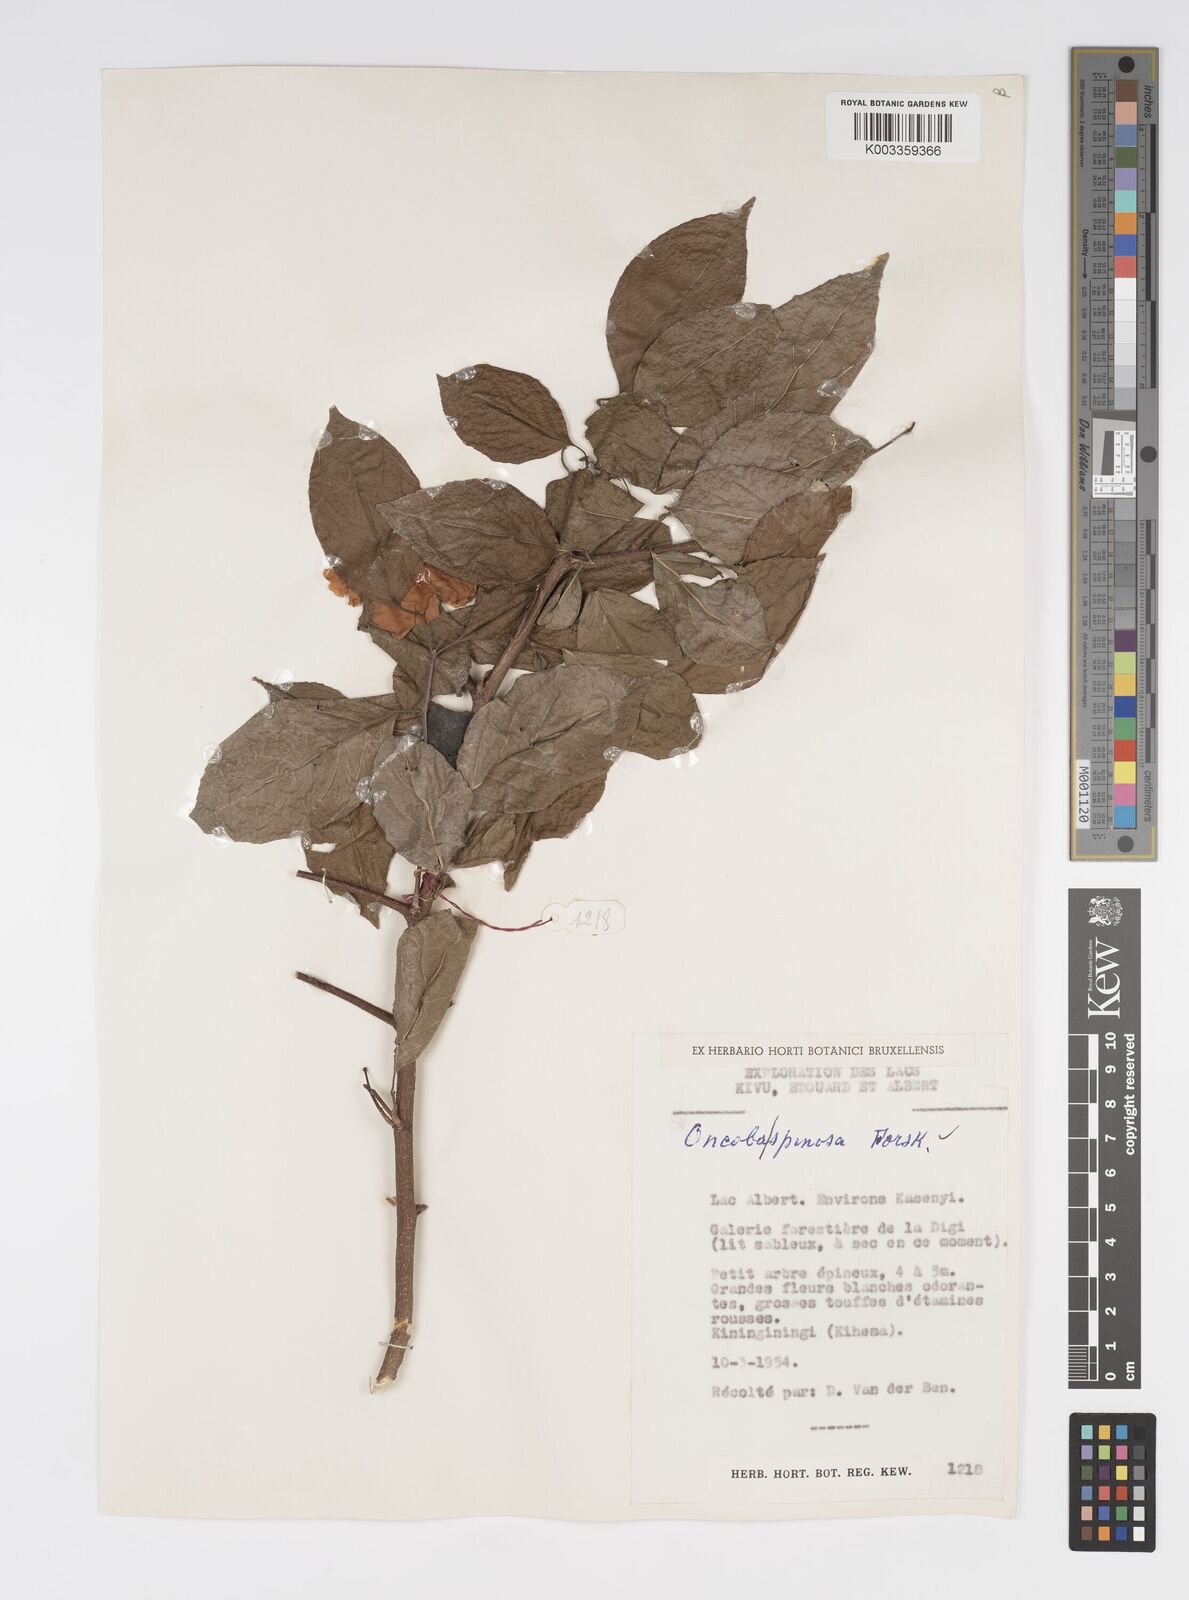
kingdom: Plantae
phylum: Tracheophyta
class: Magnoliopsida
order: Malpighiales
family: Salicaceae
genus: Oncoba
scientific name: Oncoba spinosa
